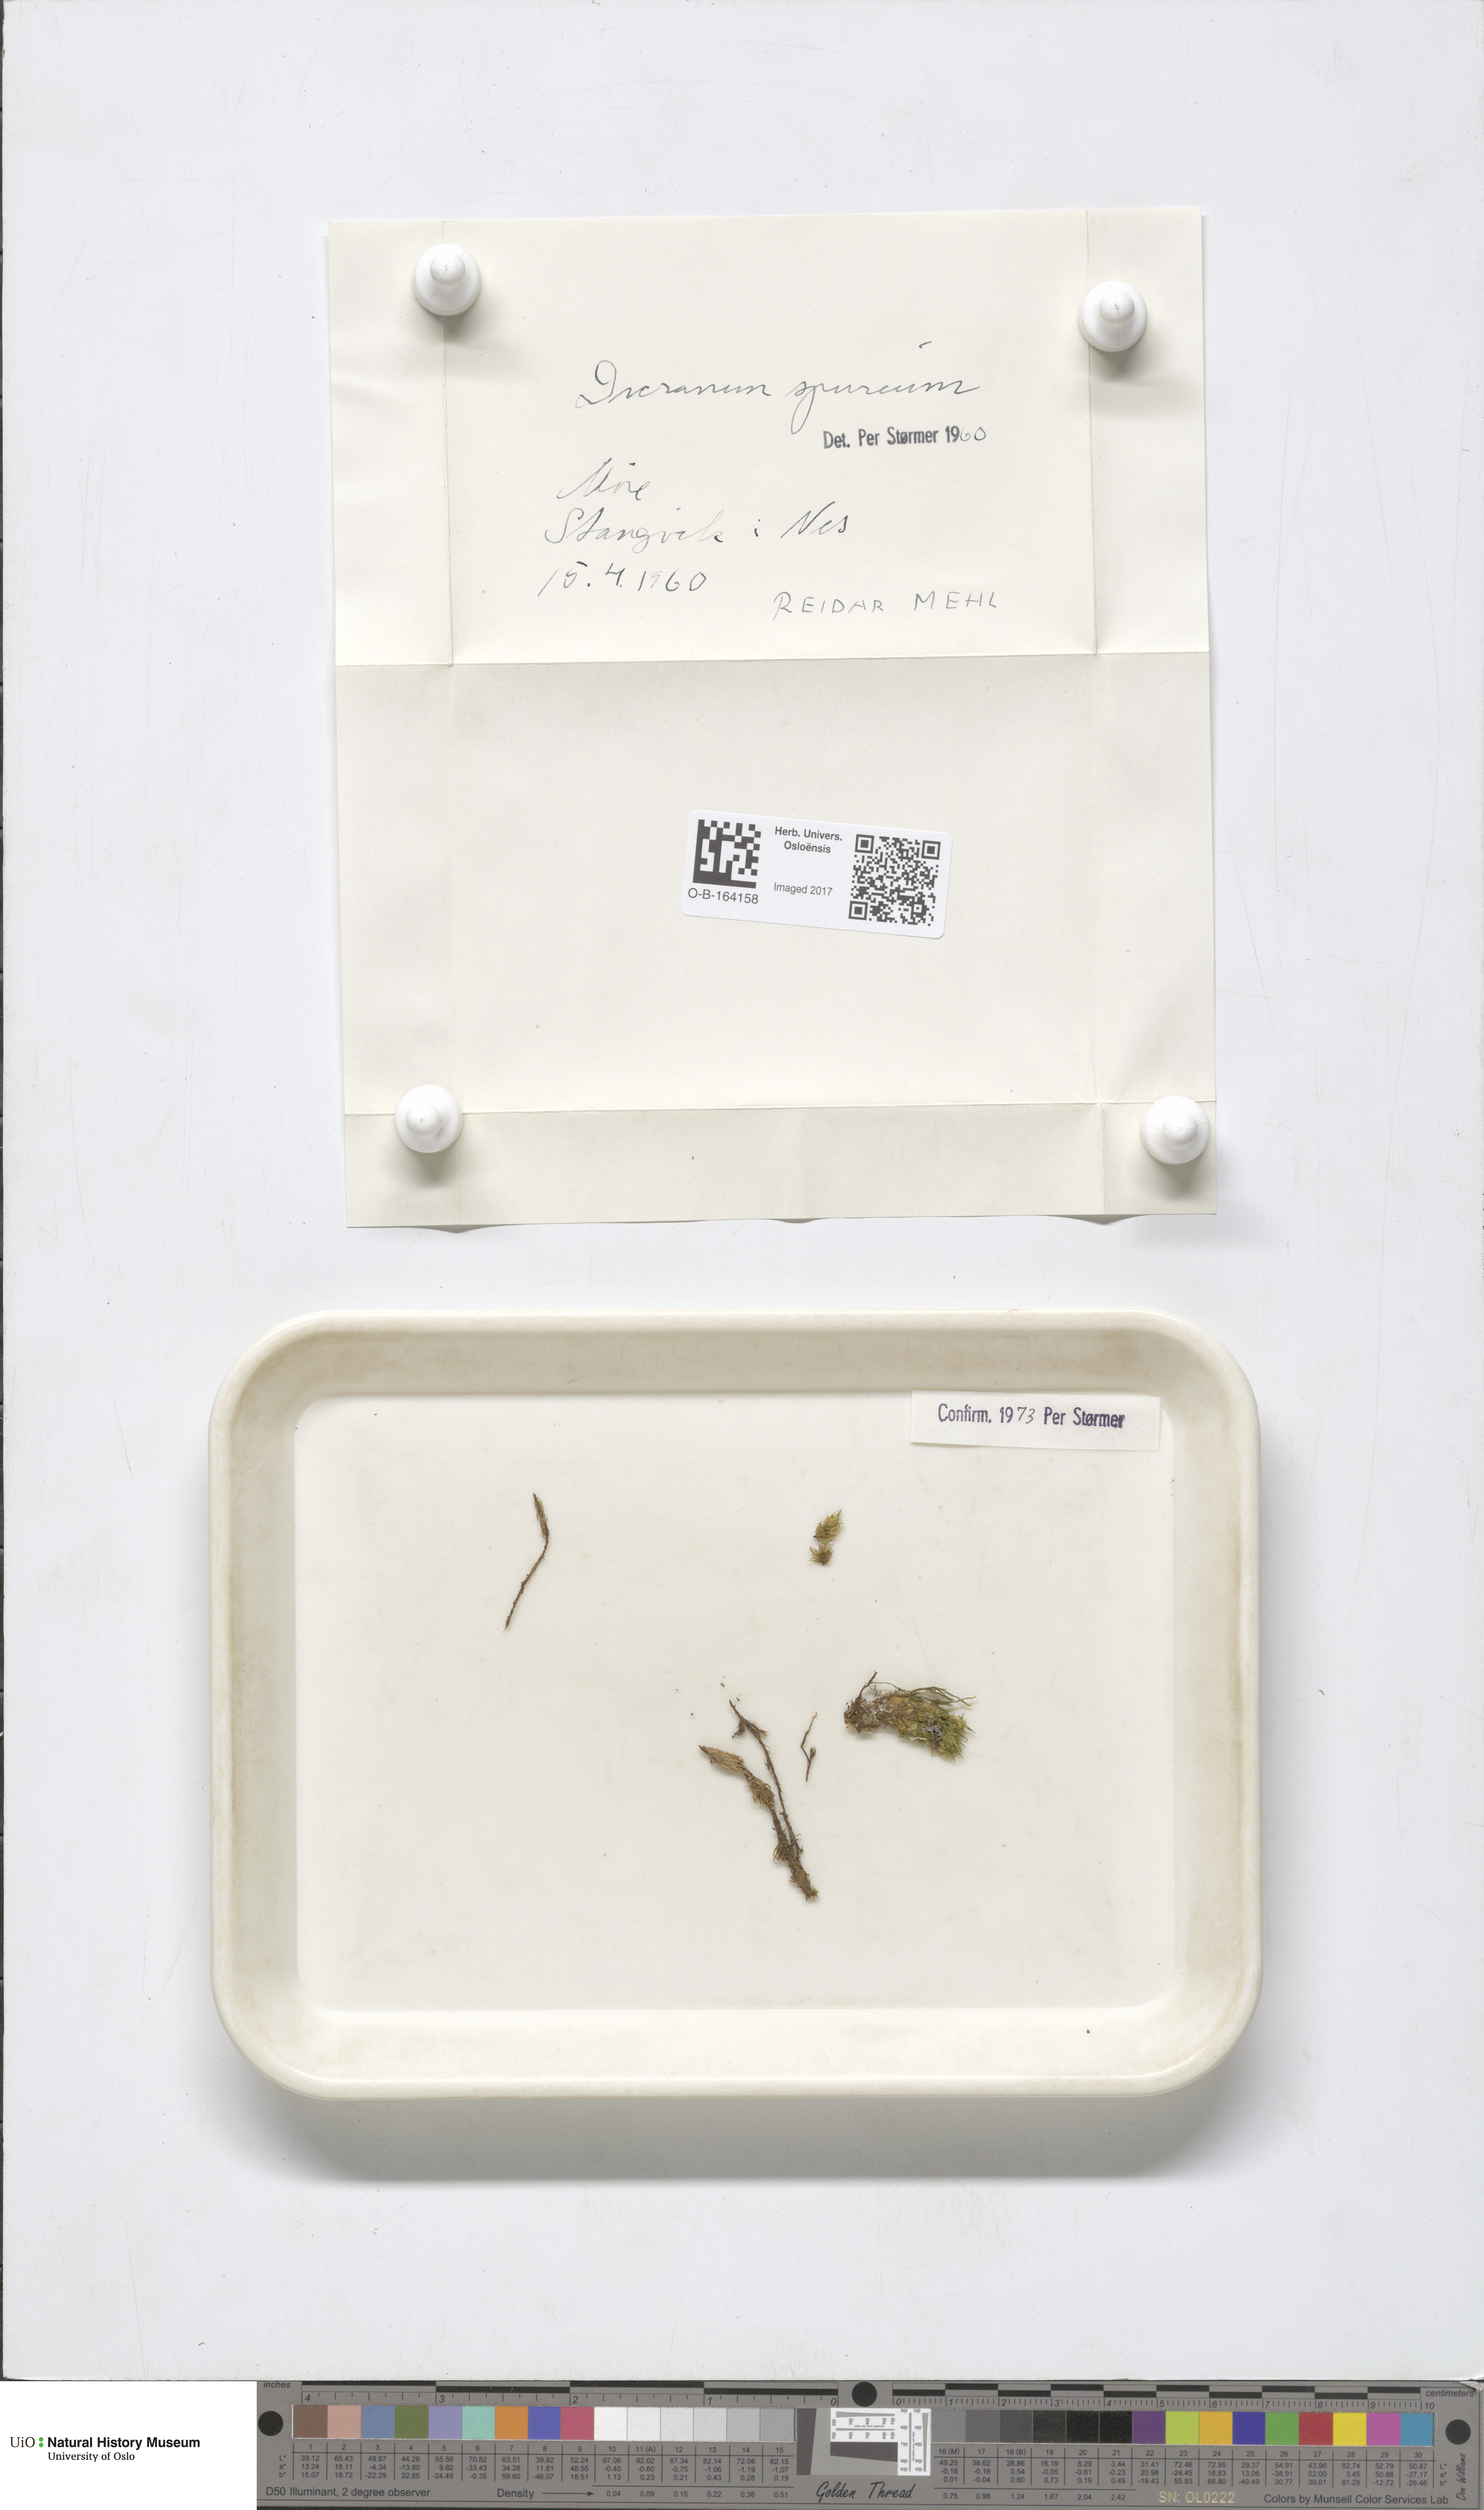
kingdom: Plantae
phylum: Bryophyta
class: Bryopsida
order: Dicranales
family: Dicranaceae
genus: Dicranum
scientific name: Dicranum spurium
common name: Spurred broom moss
